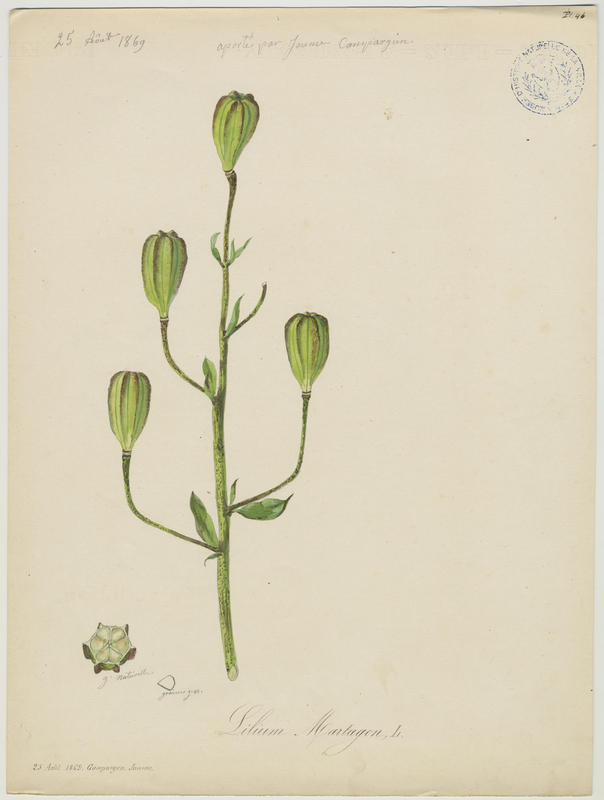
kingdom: Plantae
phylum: Tracheophyta
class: Liliopsida
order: Liliales
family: Liliaceae
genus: Lilium
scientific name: Lilium martagon
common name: Martagon lily
